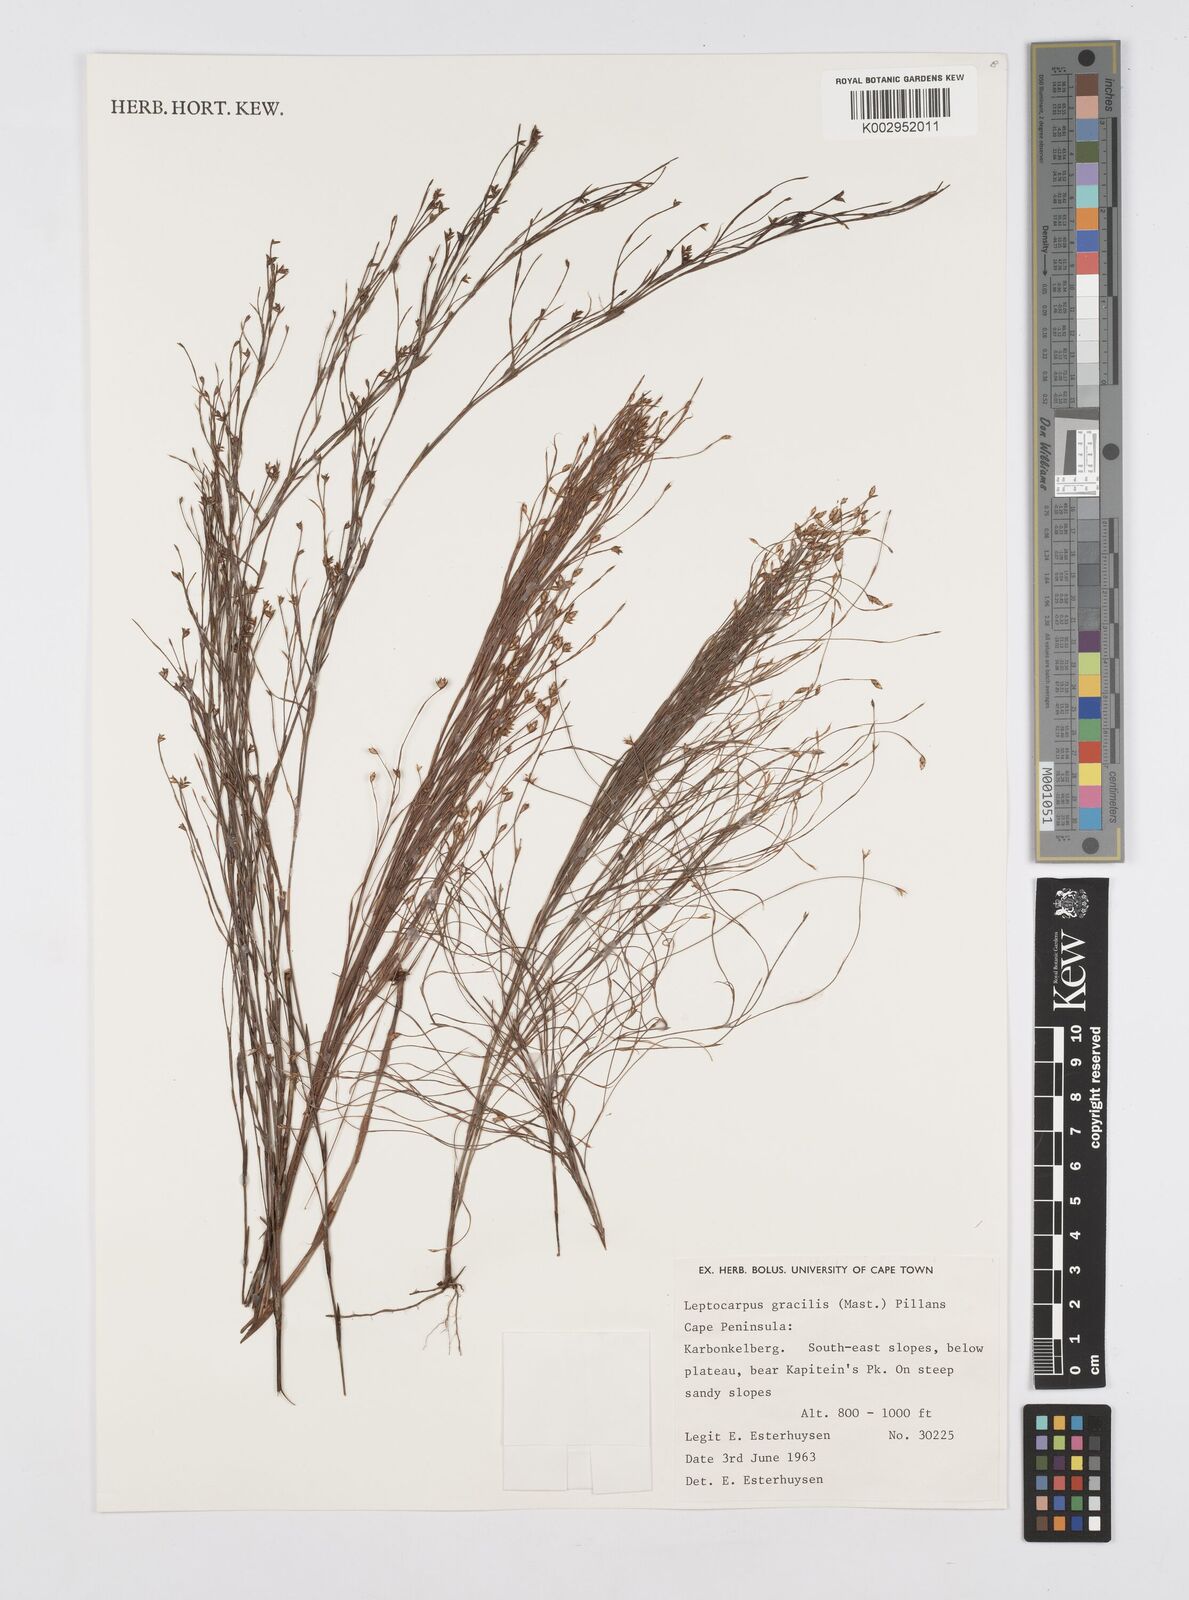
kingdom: Plantae
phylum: Tracheophyta
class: Liliopsida
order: Poales
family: Restionaceae
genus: Baloskion
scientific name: Baloskion gracile
